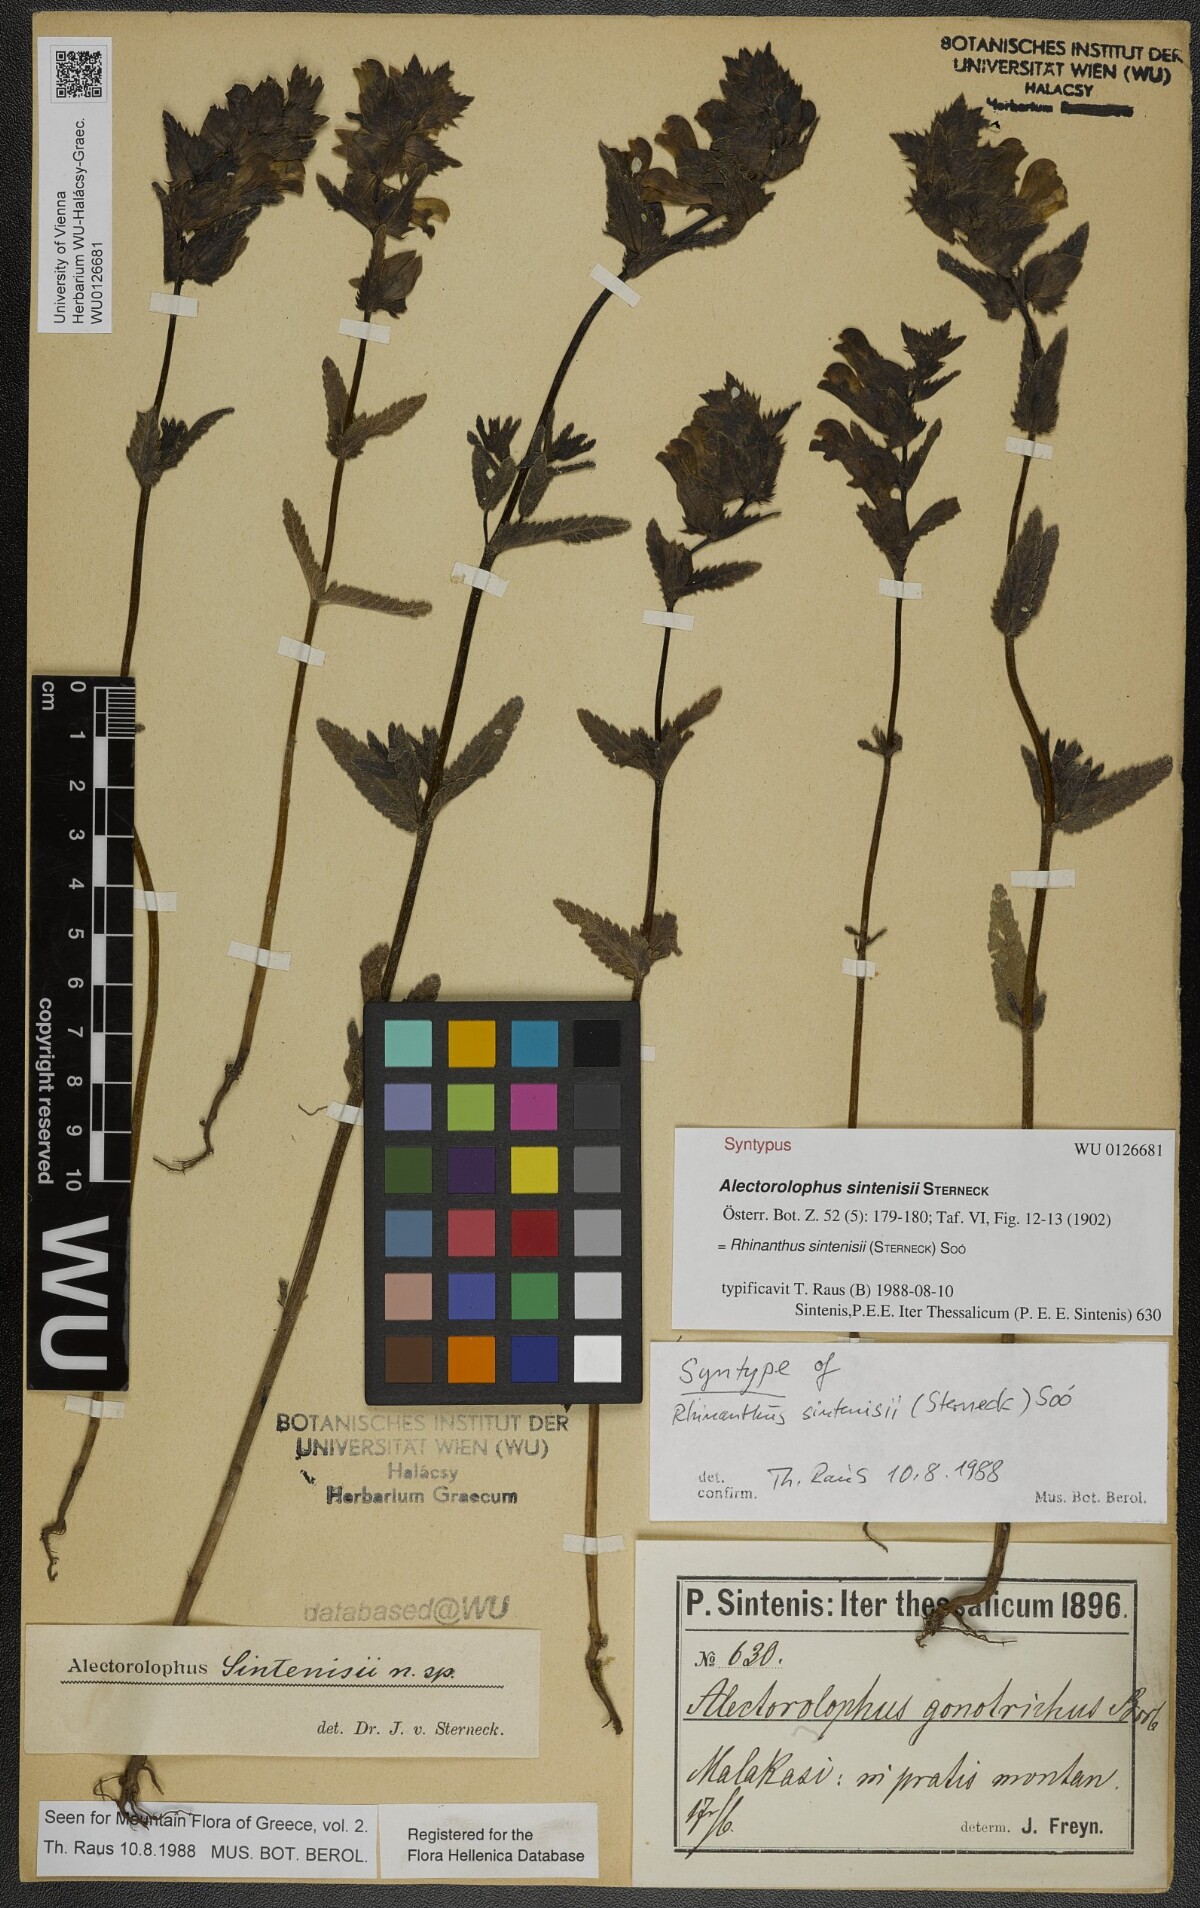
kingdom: Plantae
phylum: Tracheophyta
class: Magnoliopsida
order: Lamiales
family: Orobanchaceae
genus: Rhinanthus
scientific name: Rhinanthus sintenisii
